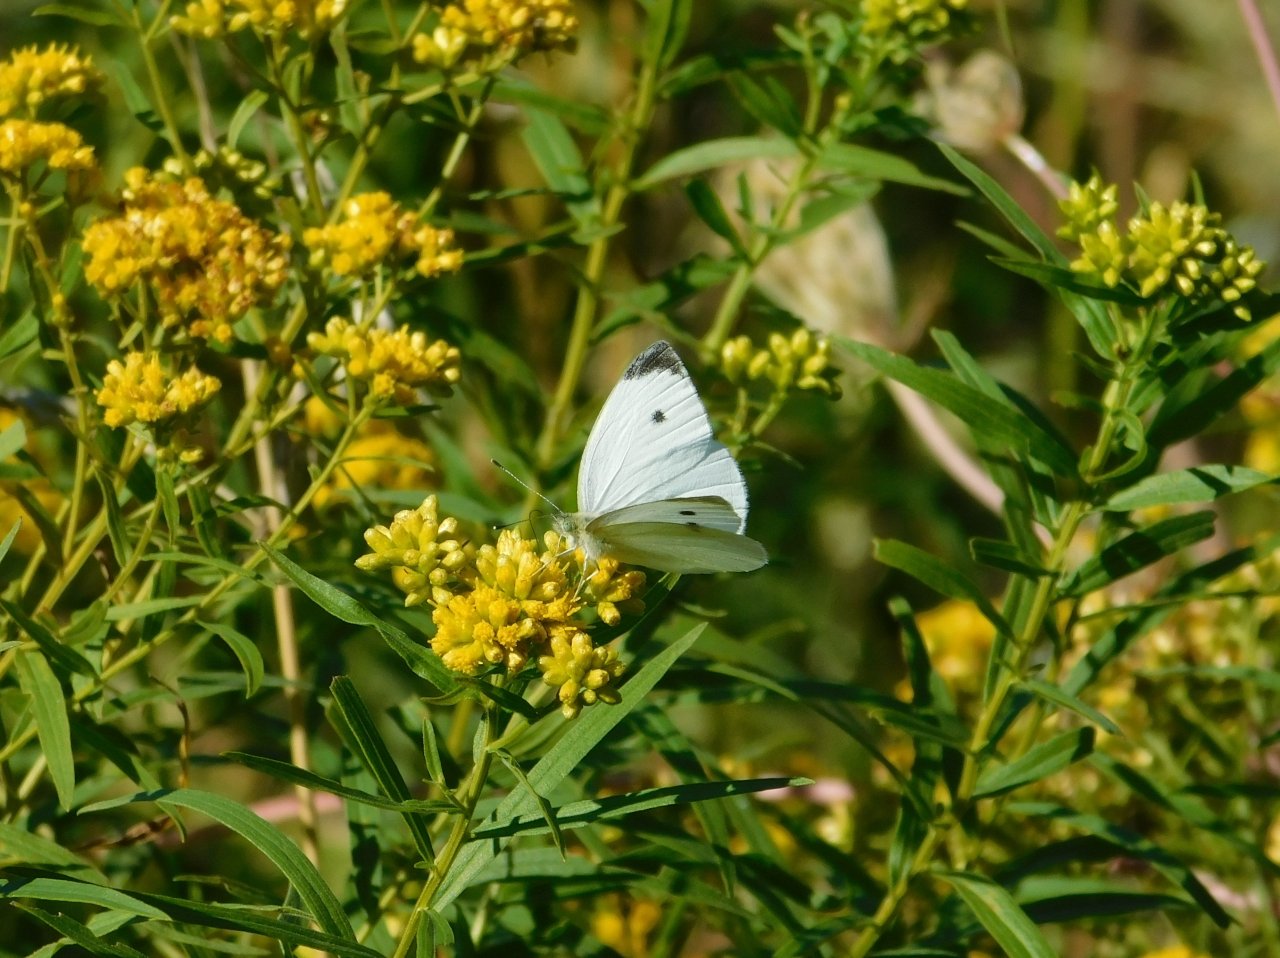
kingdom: Animalia
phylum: Arthropoda
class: Insecta
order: Lepidoptera
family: Pieridae
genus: Pieris
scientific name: Pieris rapae
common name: Cabbage White
